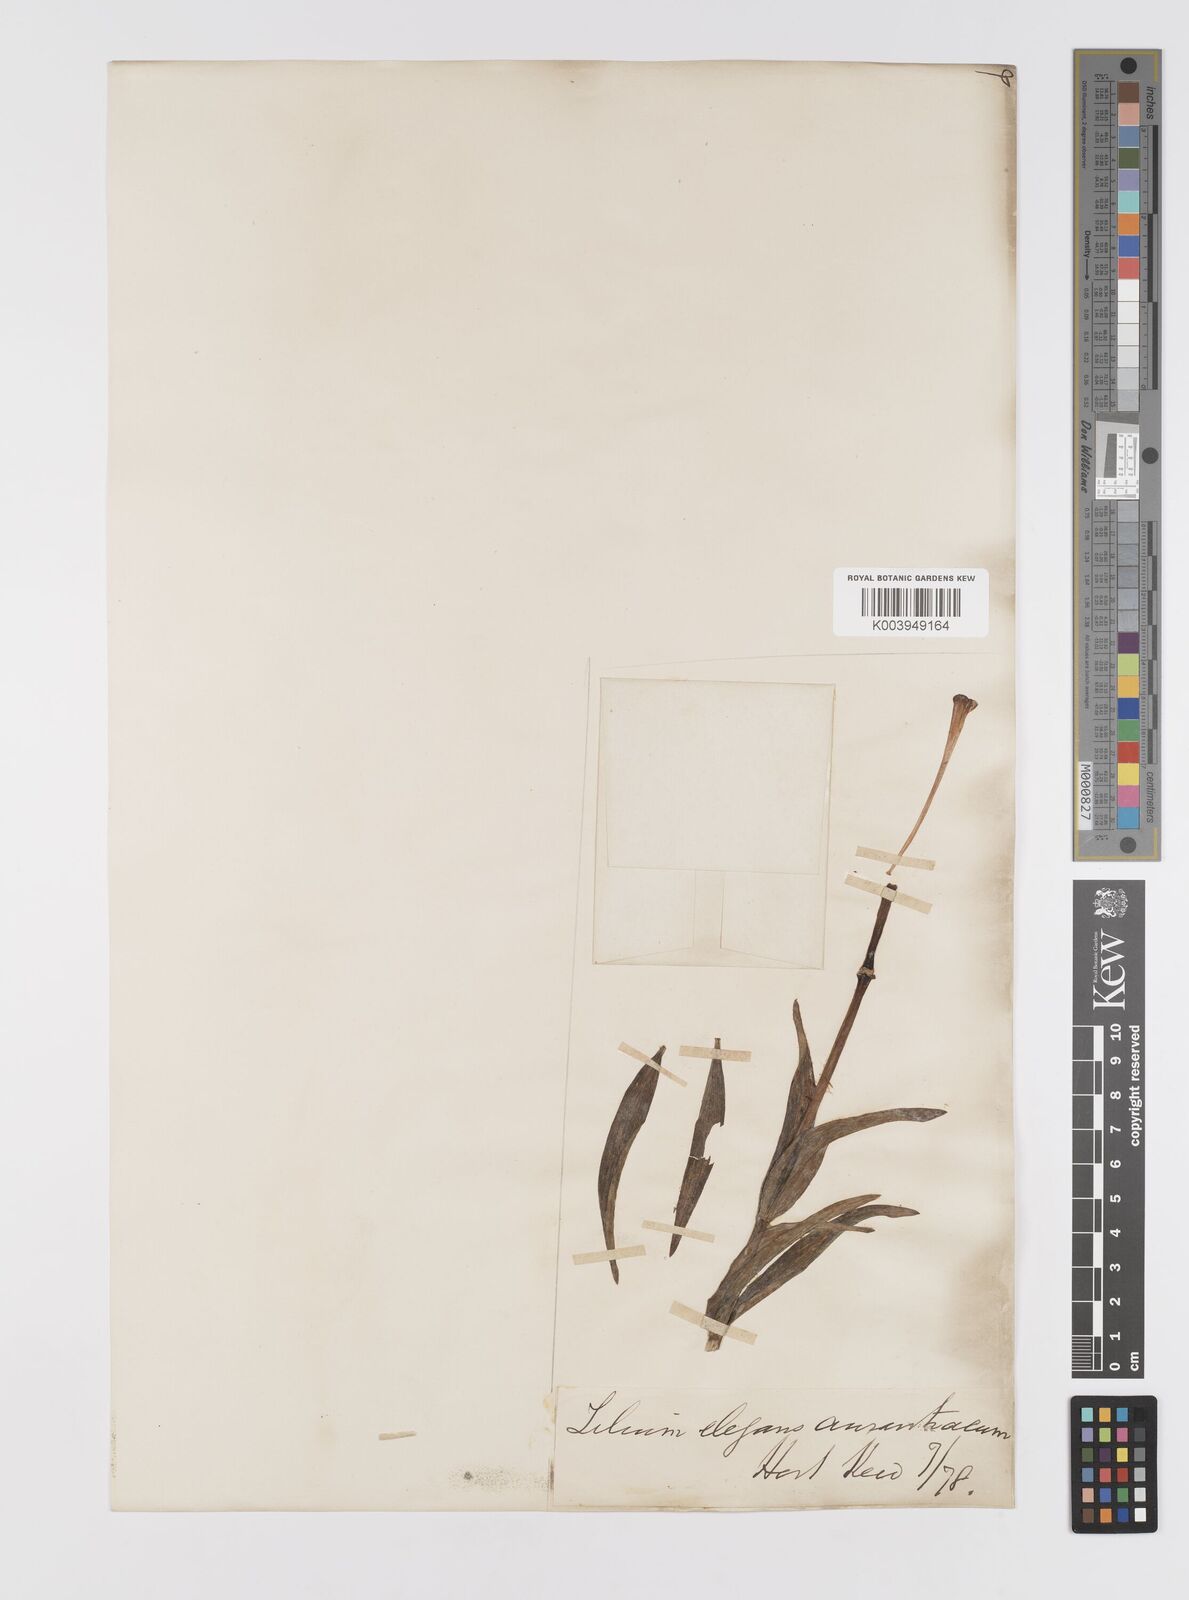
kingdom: Plantae
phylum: Tracheophyta
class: Liliopsida
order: Liliales
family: Liliaceae
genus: Lilium
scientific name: Lilium pensylvanicum
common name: Candlestick lily
